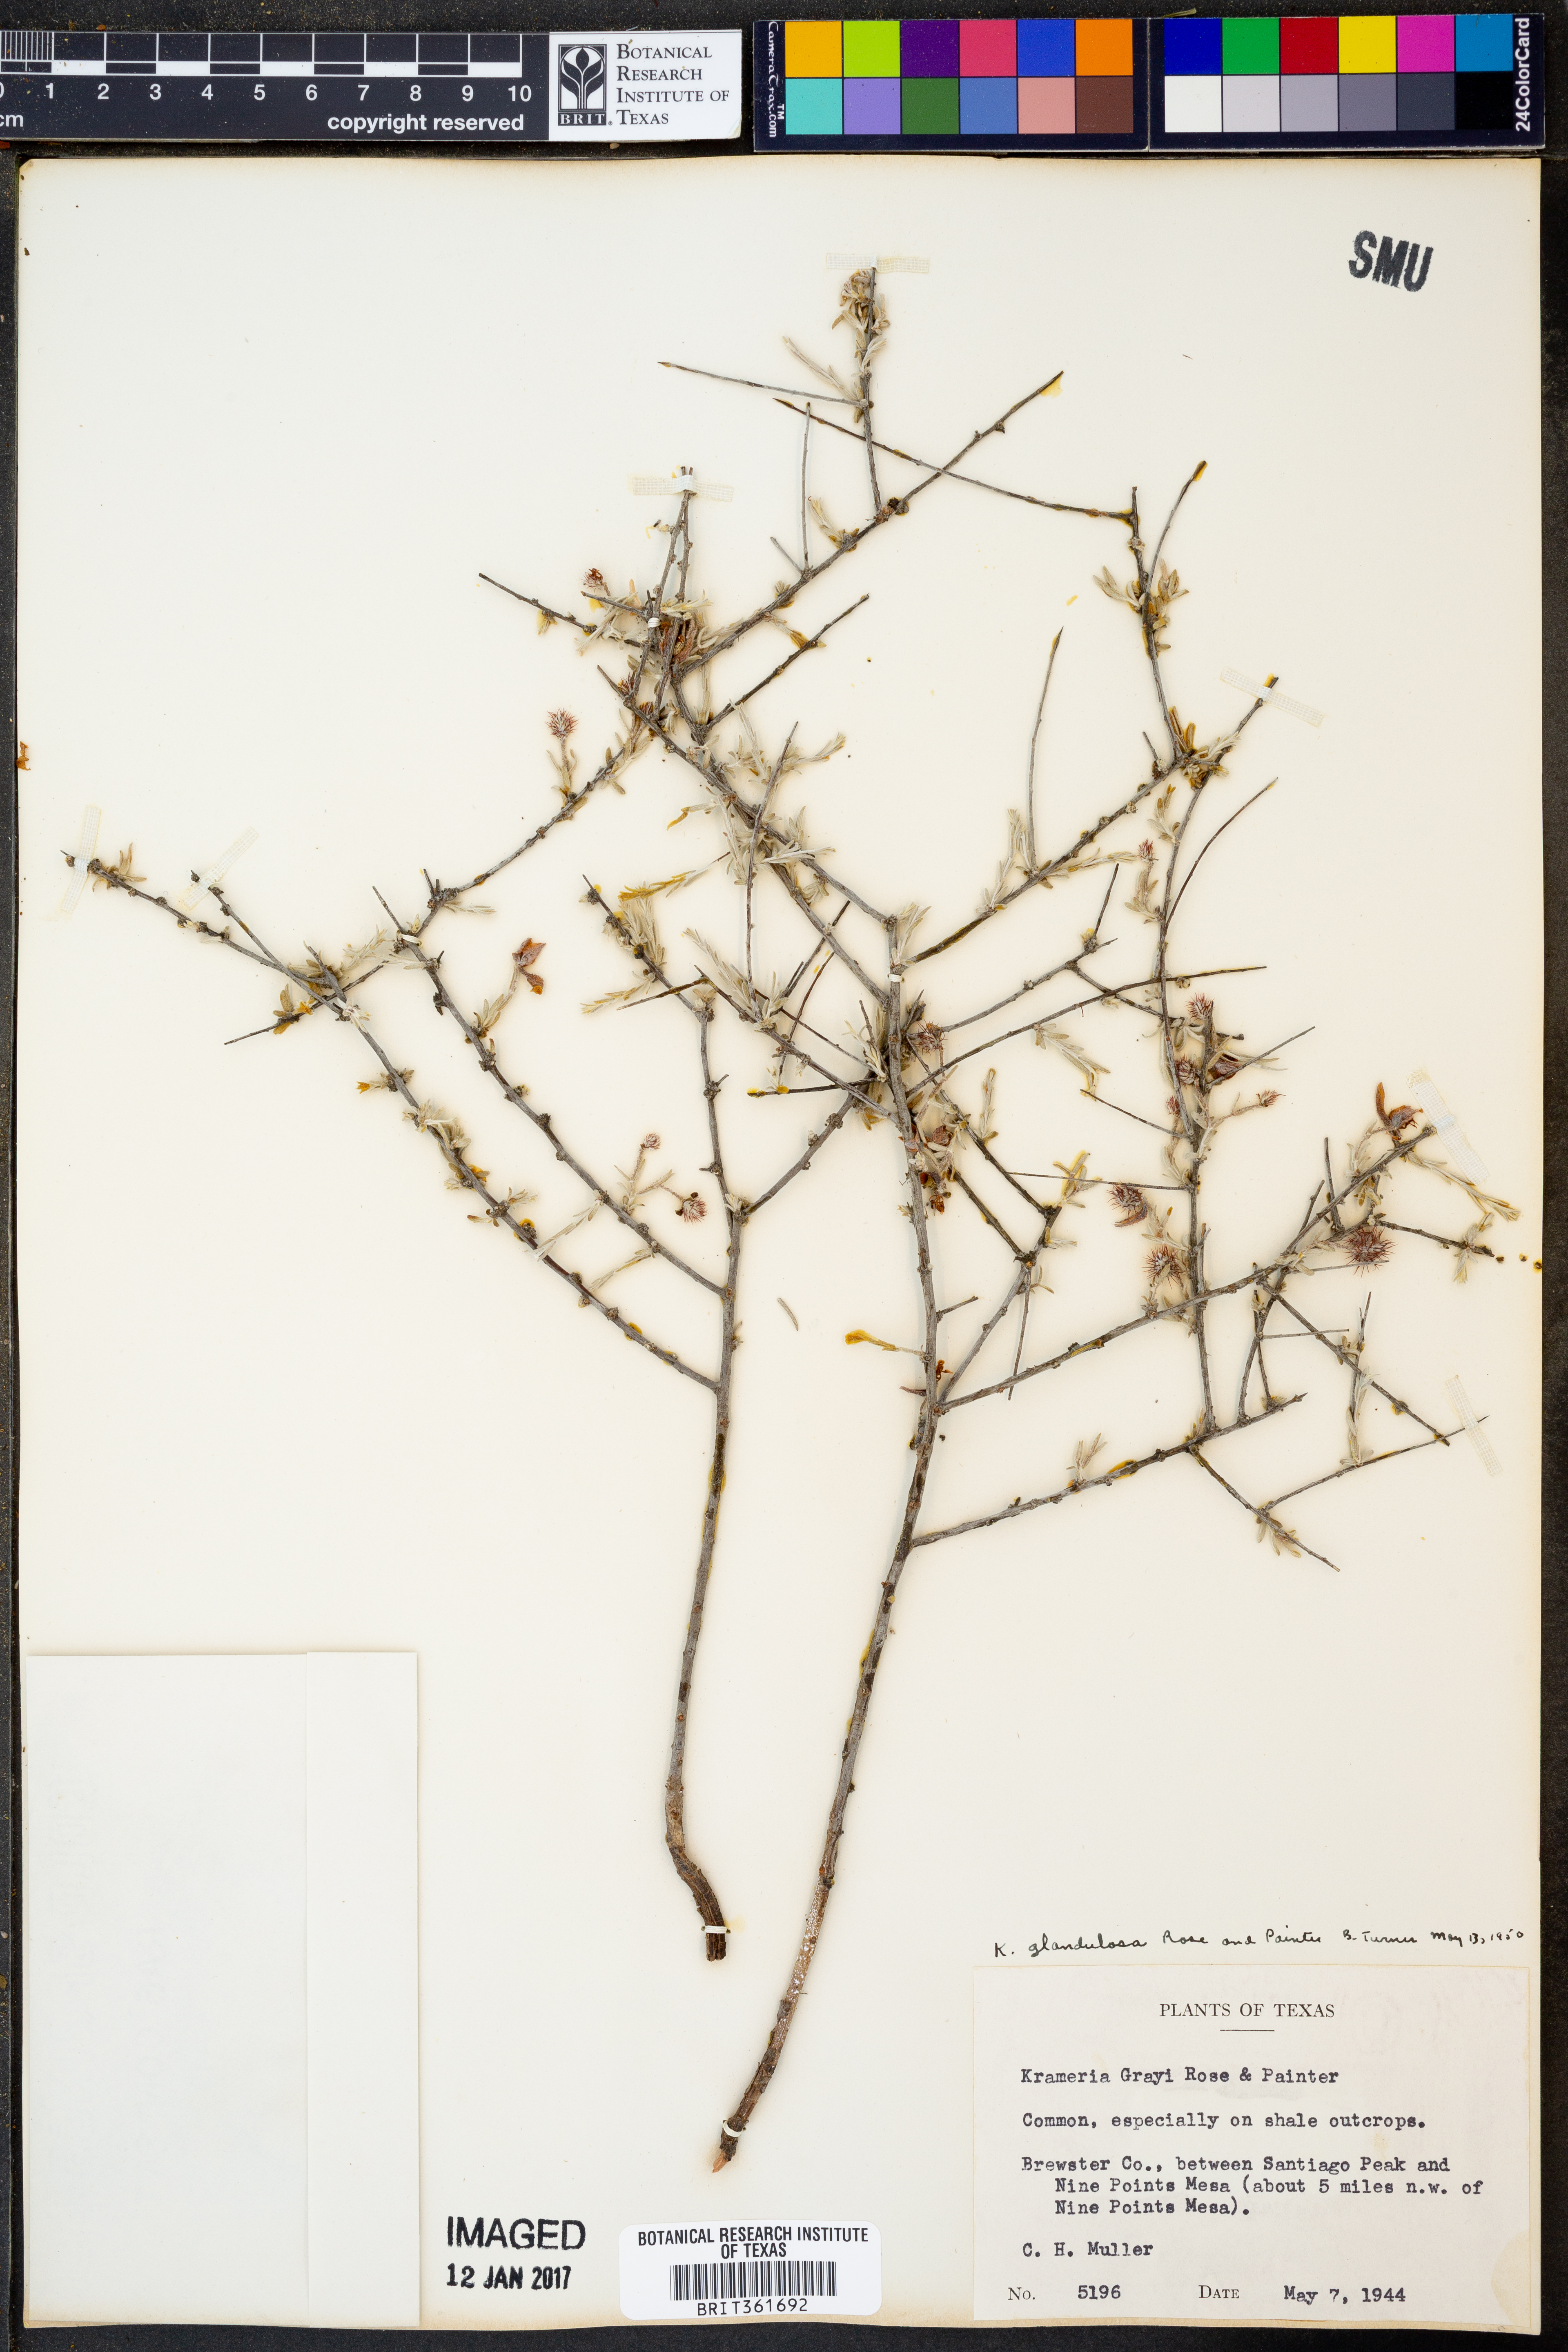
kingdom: Plantae
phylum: Tracheophyta
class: Magnoliopsida
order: Zygophyllales
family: Krameriaceae
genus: Krameria
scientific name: Krameria erecta
